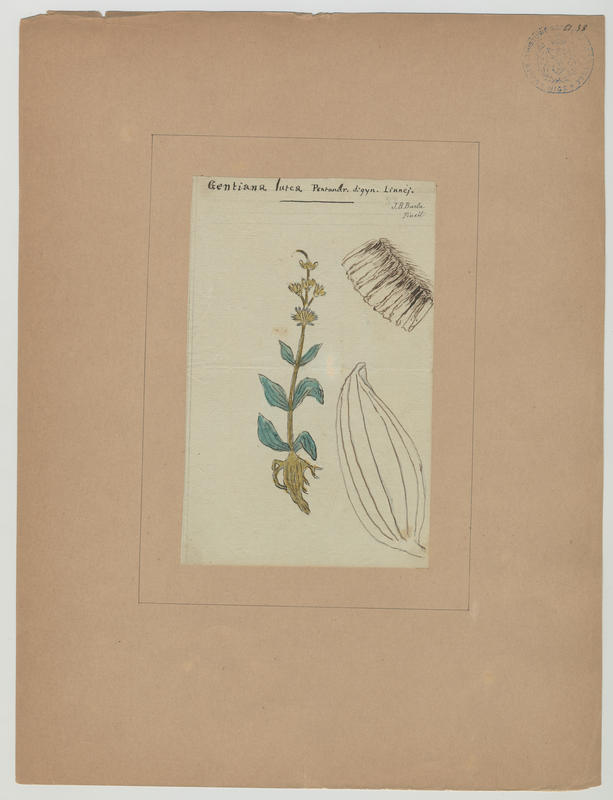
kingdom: Plantae
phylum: Tracheophyta
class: Magnoliopsida
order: Gentianales
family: Gentianaceae
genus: Gentiana
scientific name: Gentiana lutea
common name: Great yellow gentian
